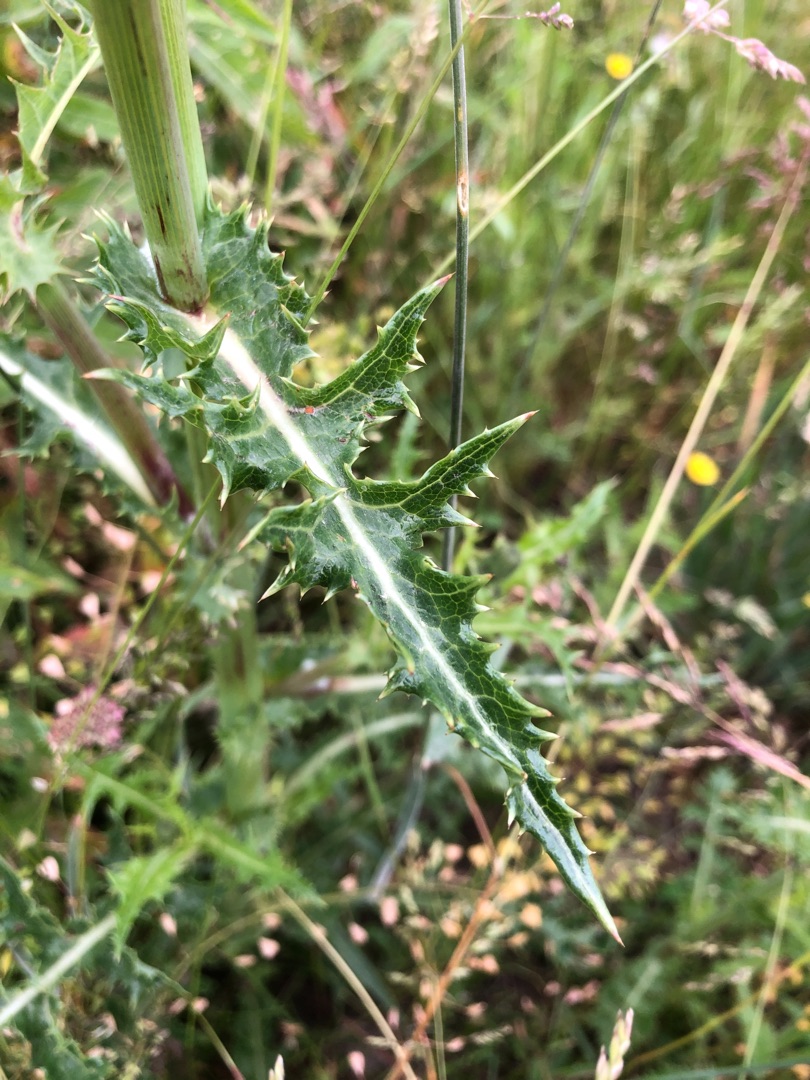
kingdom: Plantae
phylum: Tracheophyta
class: Magnoliopsida
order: Asterales
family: Asteraceae
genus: Sonchus
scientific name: Sonchus asper
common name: Ru svinemælk
